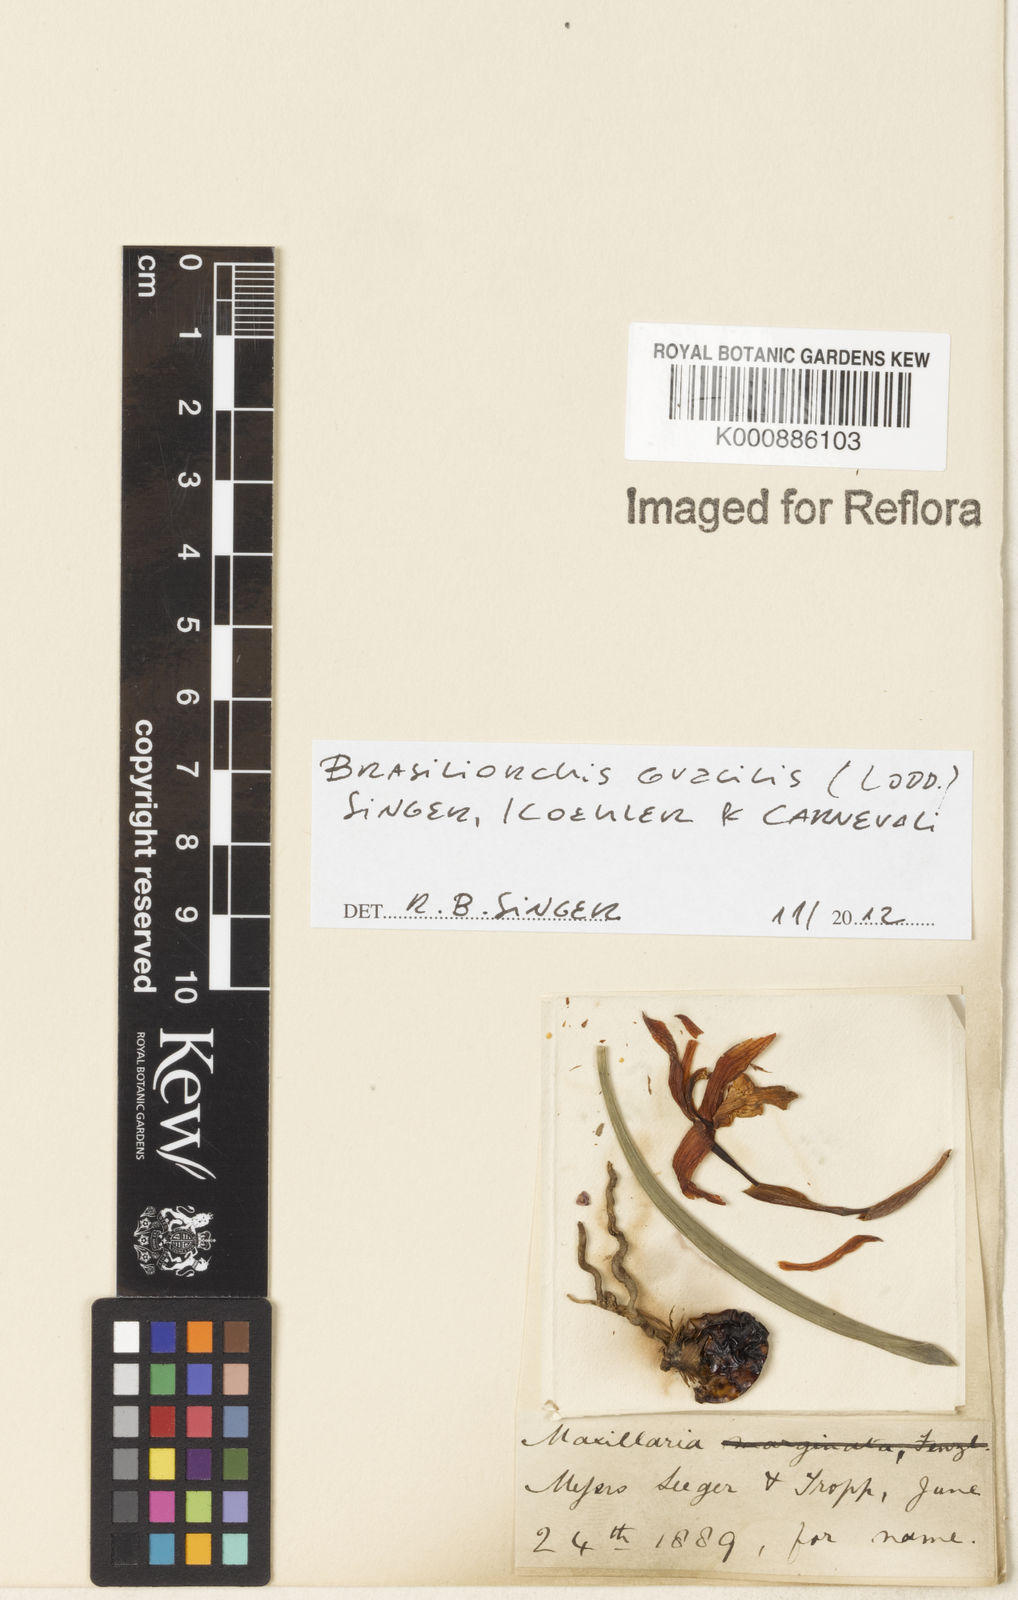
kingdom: Plantae
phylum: Tracheophyta
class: Liliopsida
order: Asparagales
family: Orchidaceae
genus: Maxillaria
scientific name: Maxillaria
